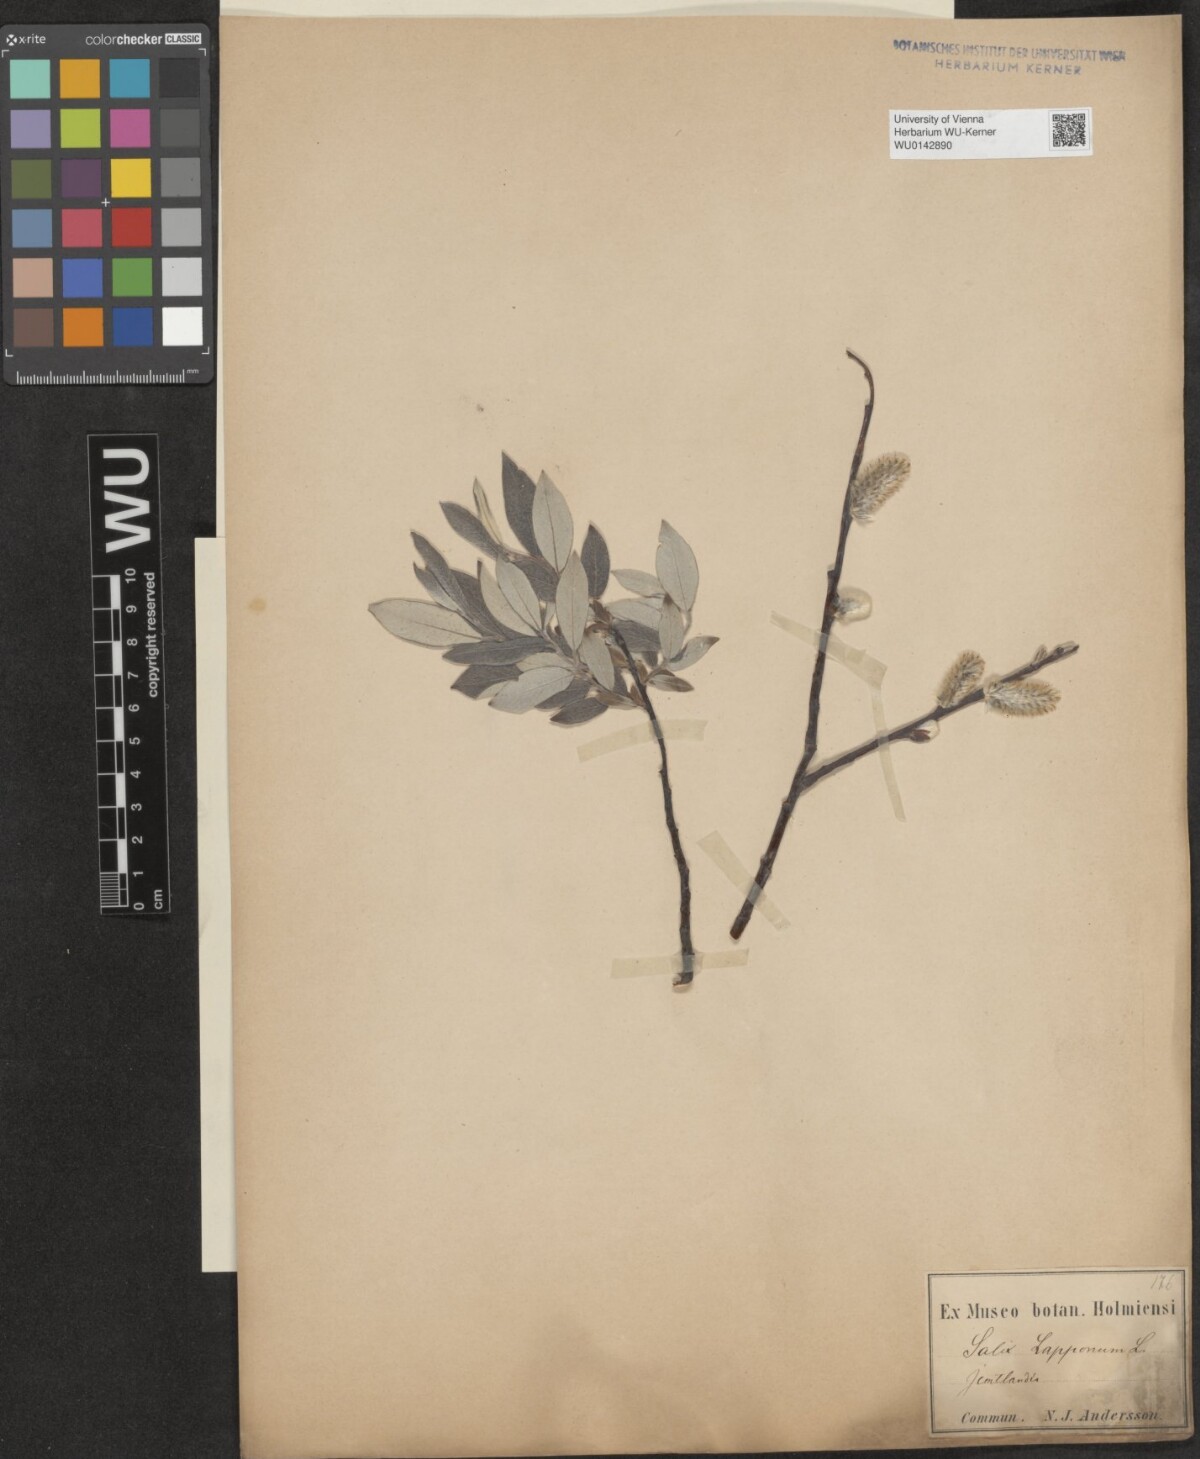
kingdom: Plantae
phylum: Tracheophyta
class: Magnoliopsida
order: Malpighiales
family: Salicaceae
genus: Salix
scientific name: Salix lapponum
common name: Downy willow
